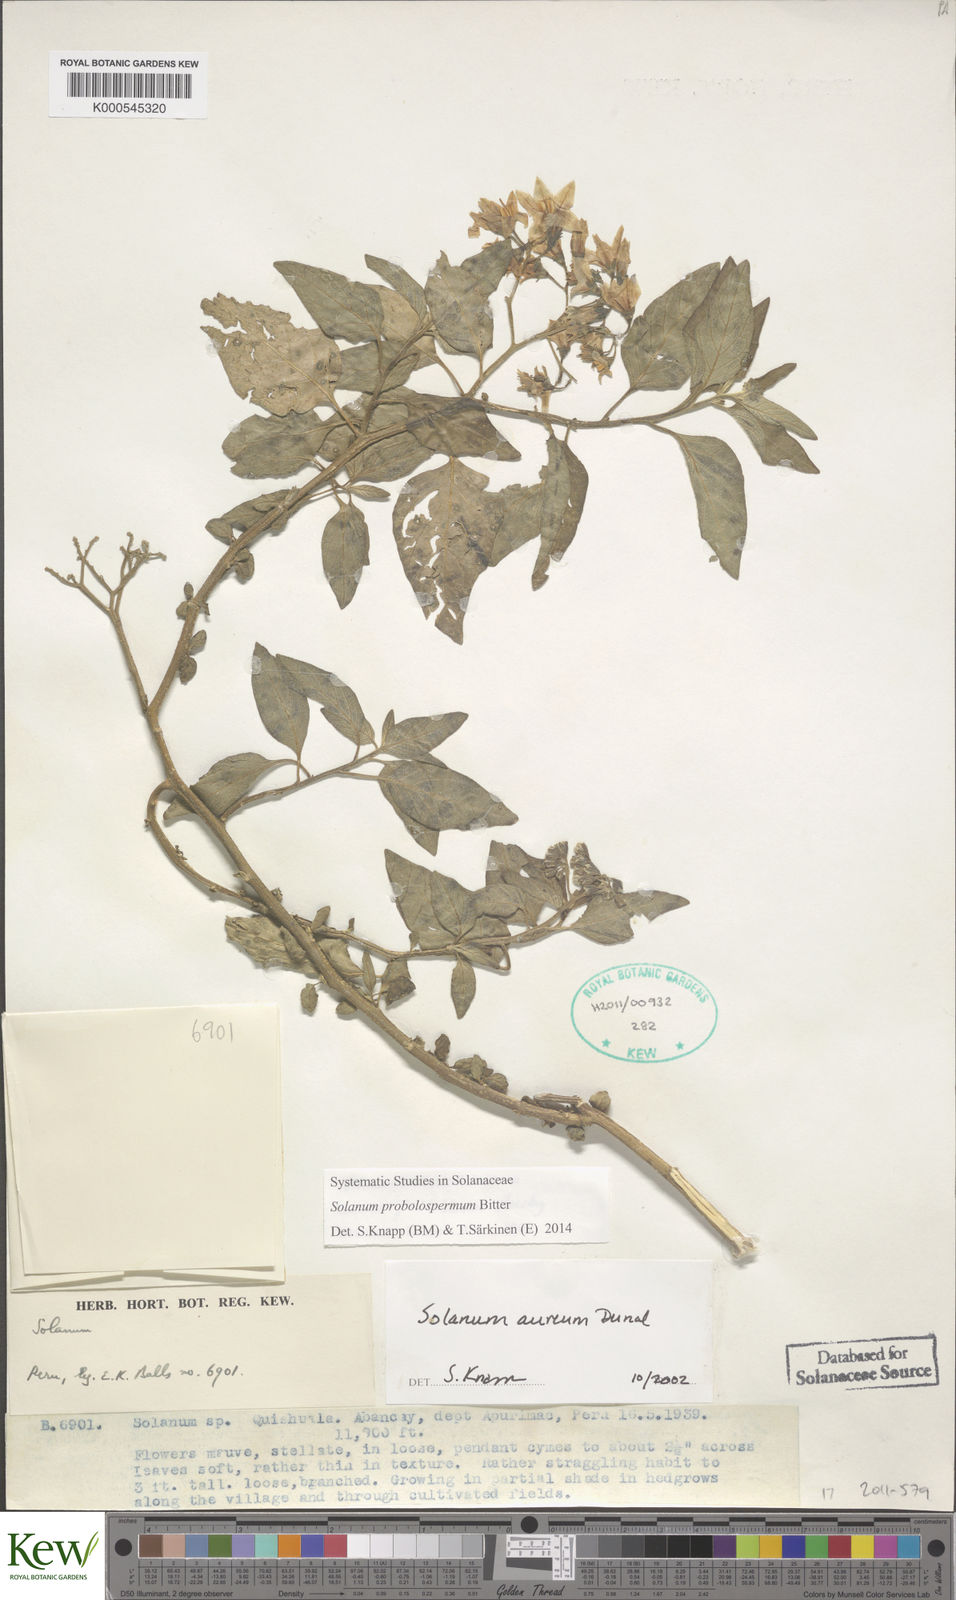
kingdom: Plantae
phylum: Tracheophyta
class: Magnoliopsida
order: Solanales
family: Solanaceae
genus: Solanum
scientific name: Solanum probolospermum
